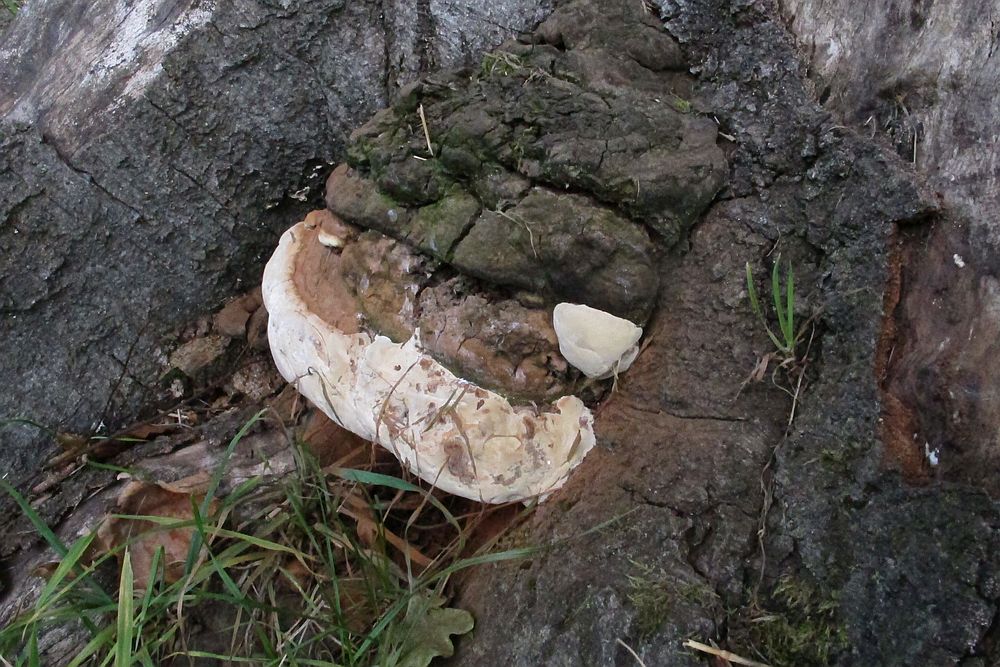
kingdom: Fungi
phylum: Basidiomycota
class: Agaricomycetes
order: Polyporales
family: Polyporaceae
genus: Ganoderma
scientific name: Ganoderma adspersum
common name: grov lakporesvamp
